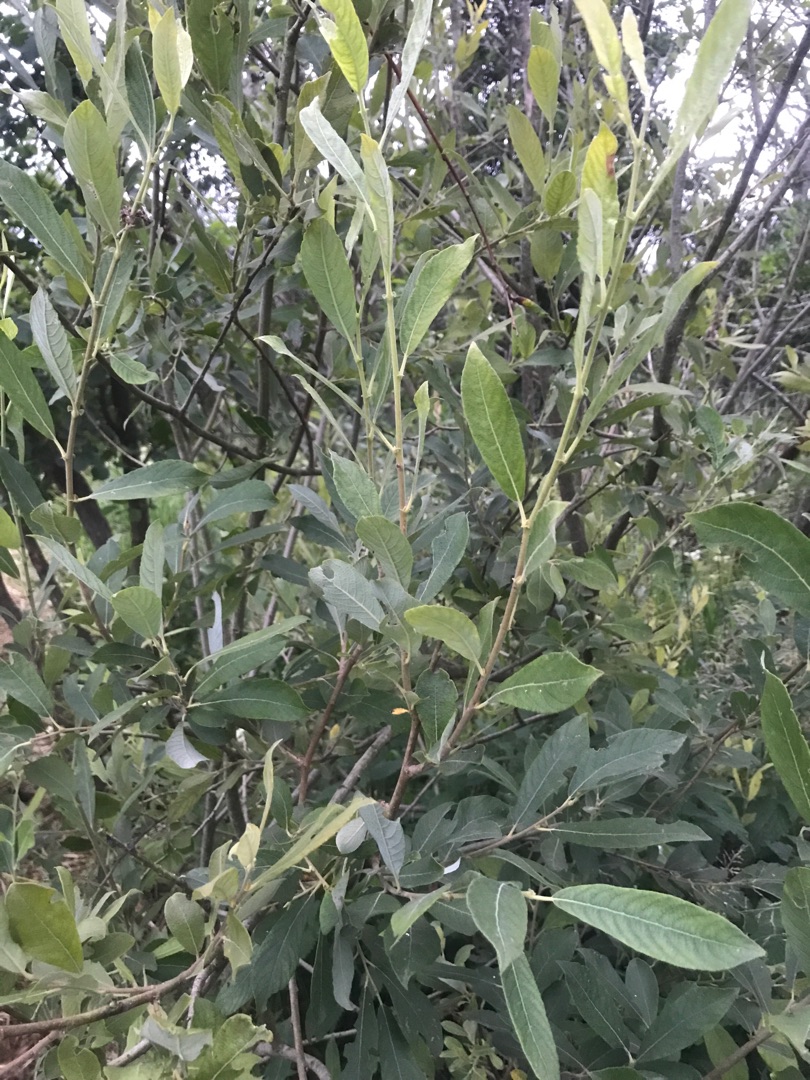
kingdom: Plantae
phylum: Tracheophyta
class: Magnoliopsida
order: Malpighiales
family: Salicaceae
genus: Salix
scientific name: Salix cinerea
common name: Grå-pil
